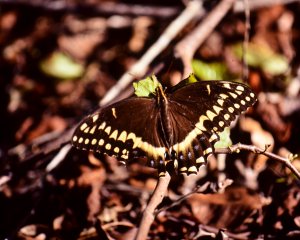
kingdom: Animalia
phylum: Arthropoda
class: Insecta
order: Lepidoptera
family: Papilionidae
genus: Pterourus
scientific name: Pterourus palamedes
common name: Palamedes Swallowtail
